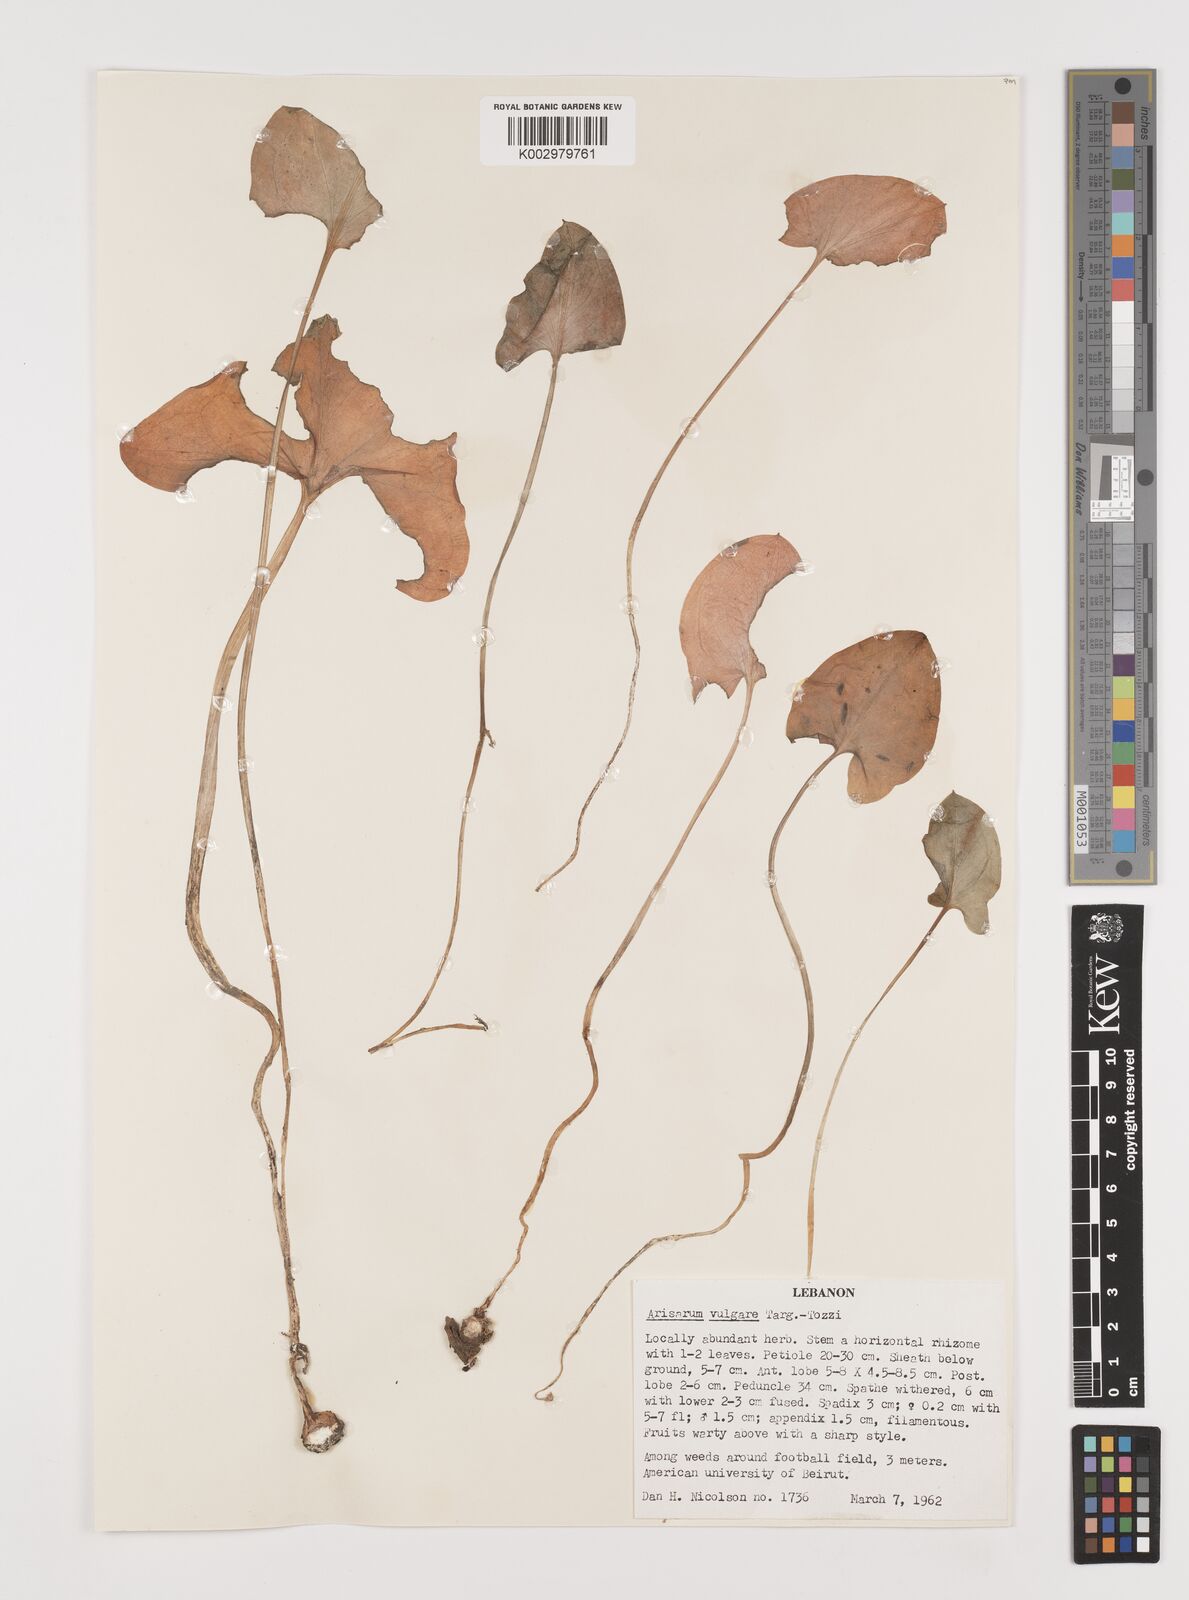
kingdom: Plantae
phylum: Tracheophyta
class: Liliopsida
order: Alismatales
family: Araceae
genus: Arisarum
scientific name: Arisarum vulgare
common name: Common arisarum
